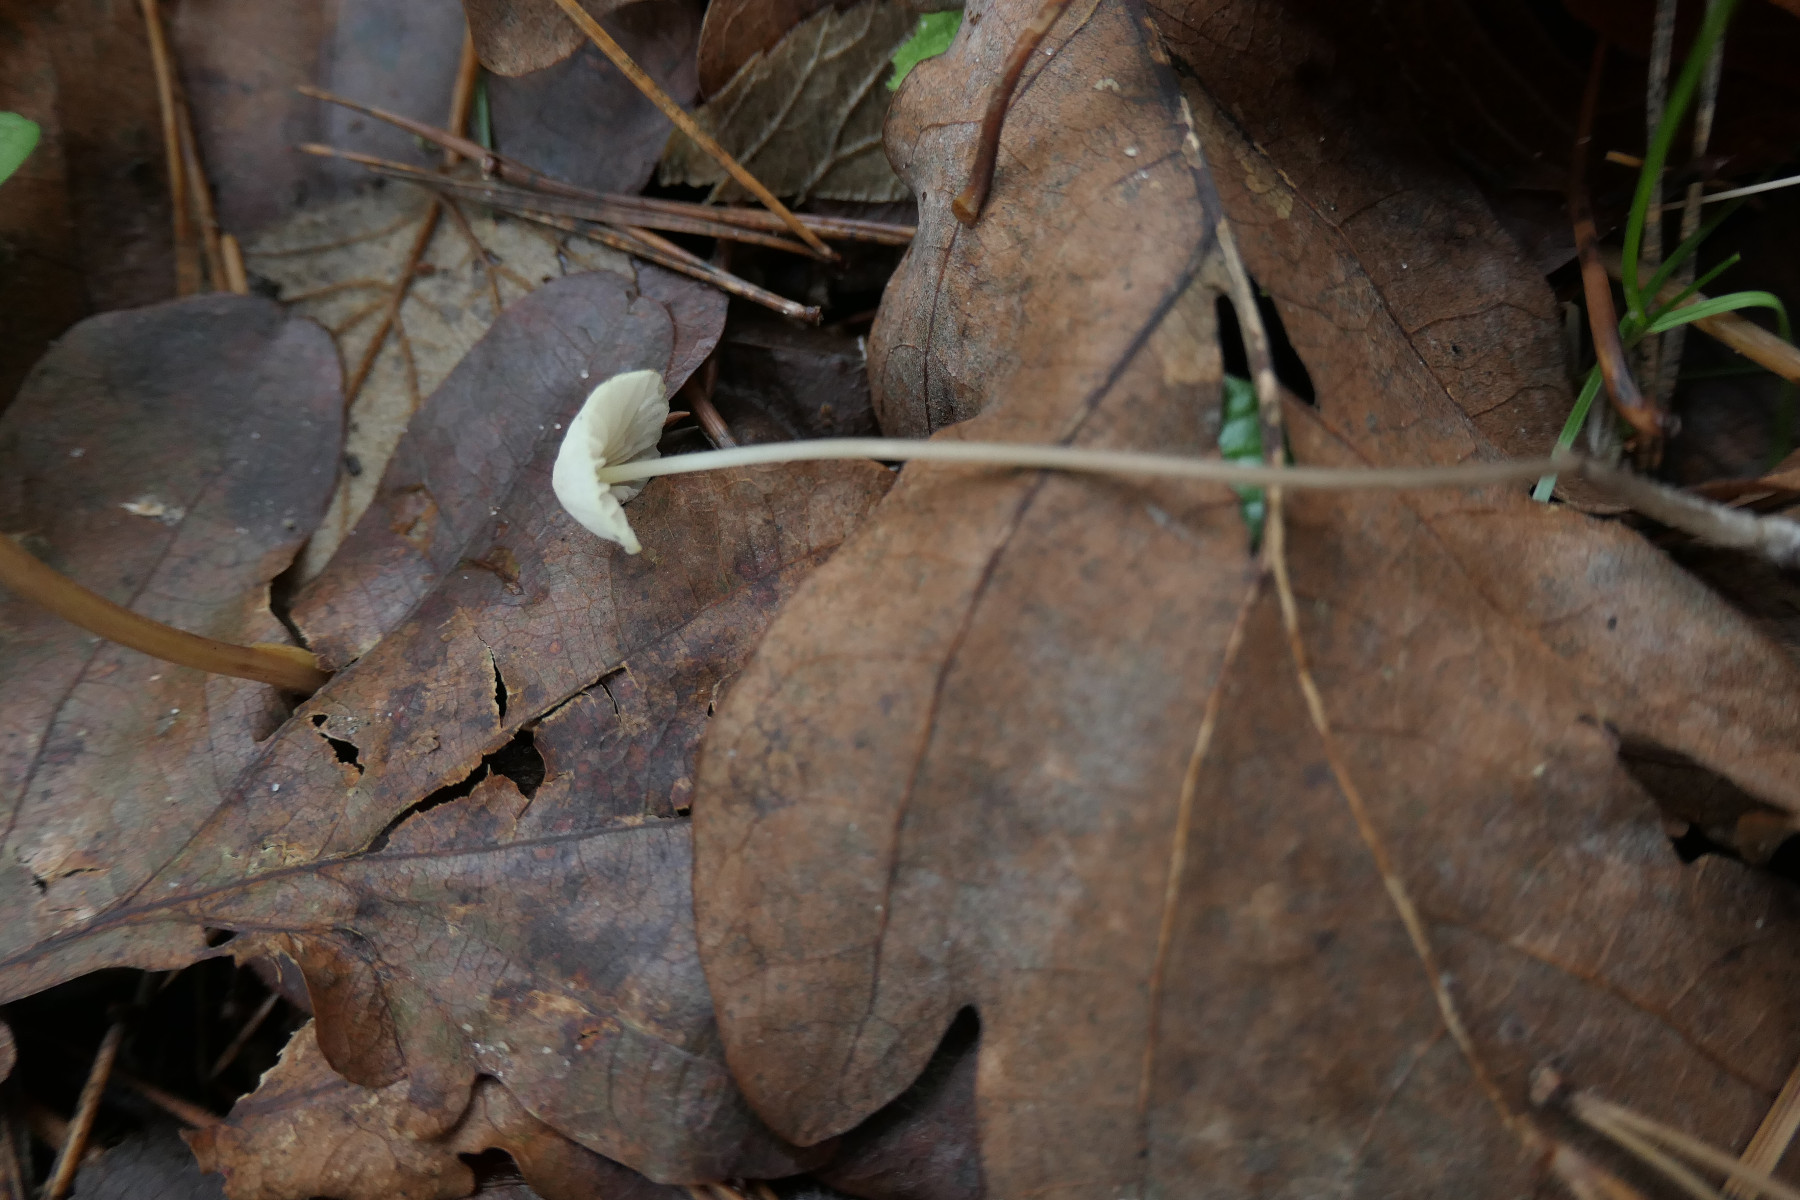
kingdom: Fungi
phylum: Basidiomycota
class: Agaricomycetes
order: Agaricales
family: Mycenaceae
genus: Mycena
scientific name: Mycena citrinomarginata
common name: gulægget huesvamp
